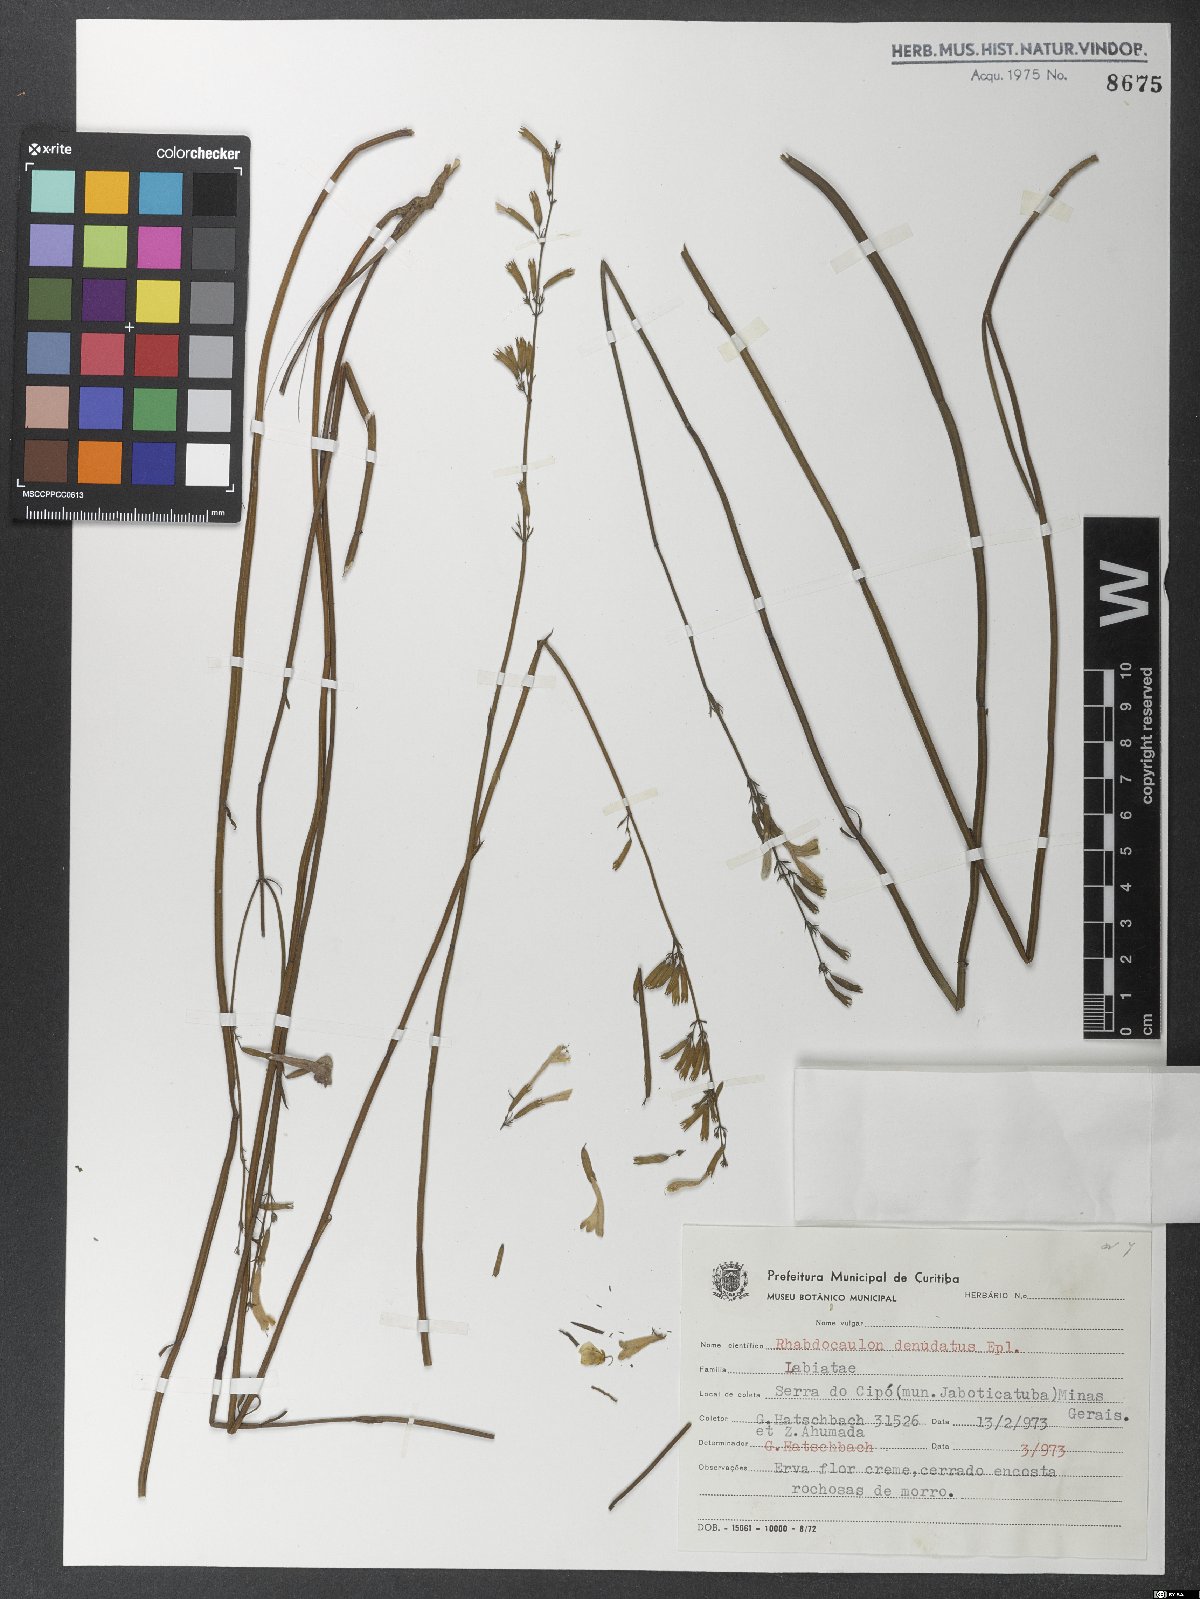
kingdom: Plantae
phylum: Tracheophyta
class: Magnoliopsida
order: Lamiales
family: Lamiaceae
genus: Rhabdocaulon
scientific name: Rhabdocaulon denudatum
